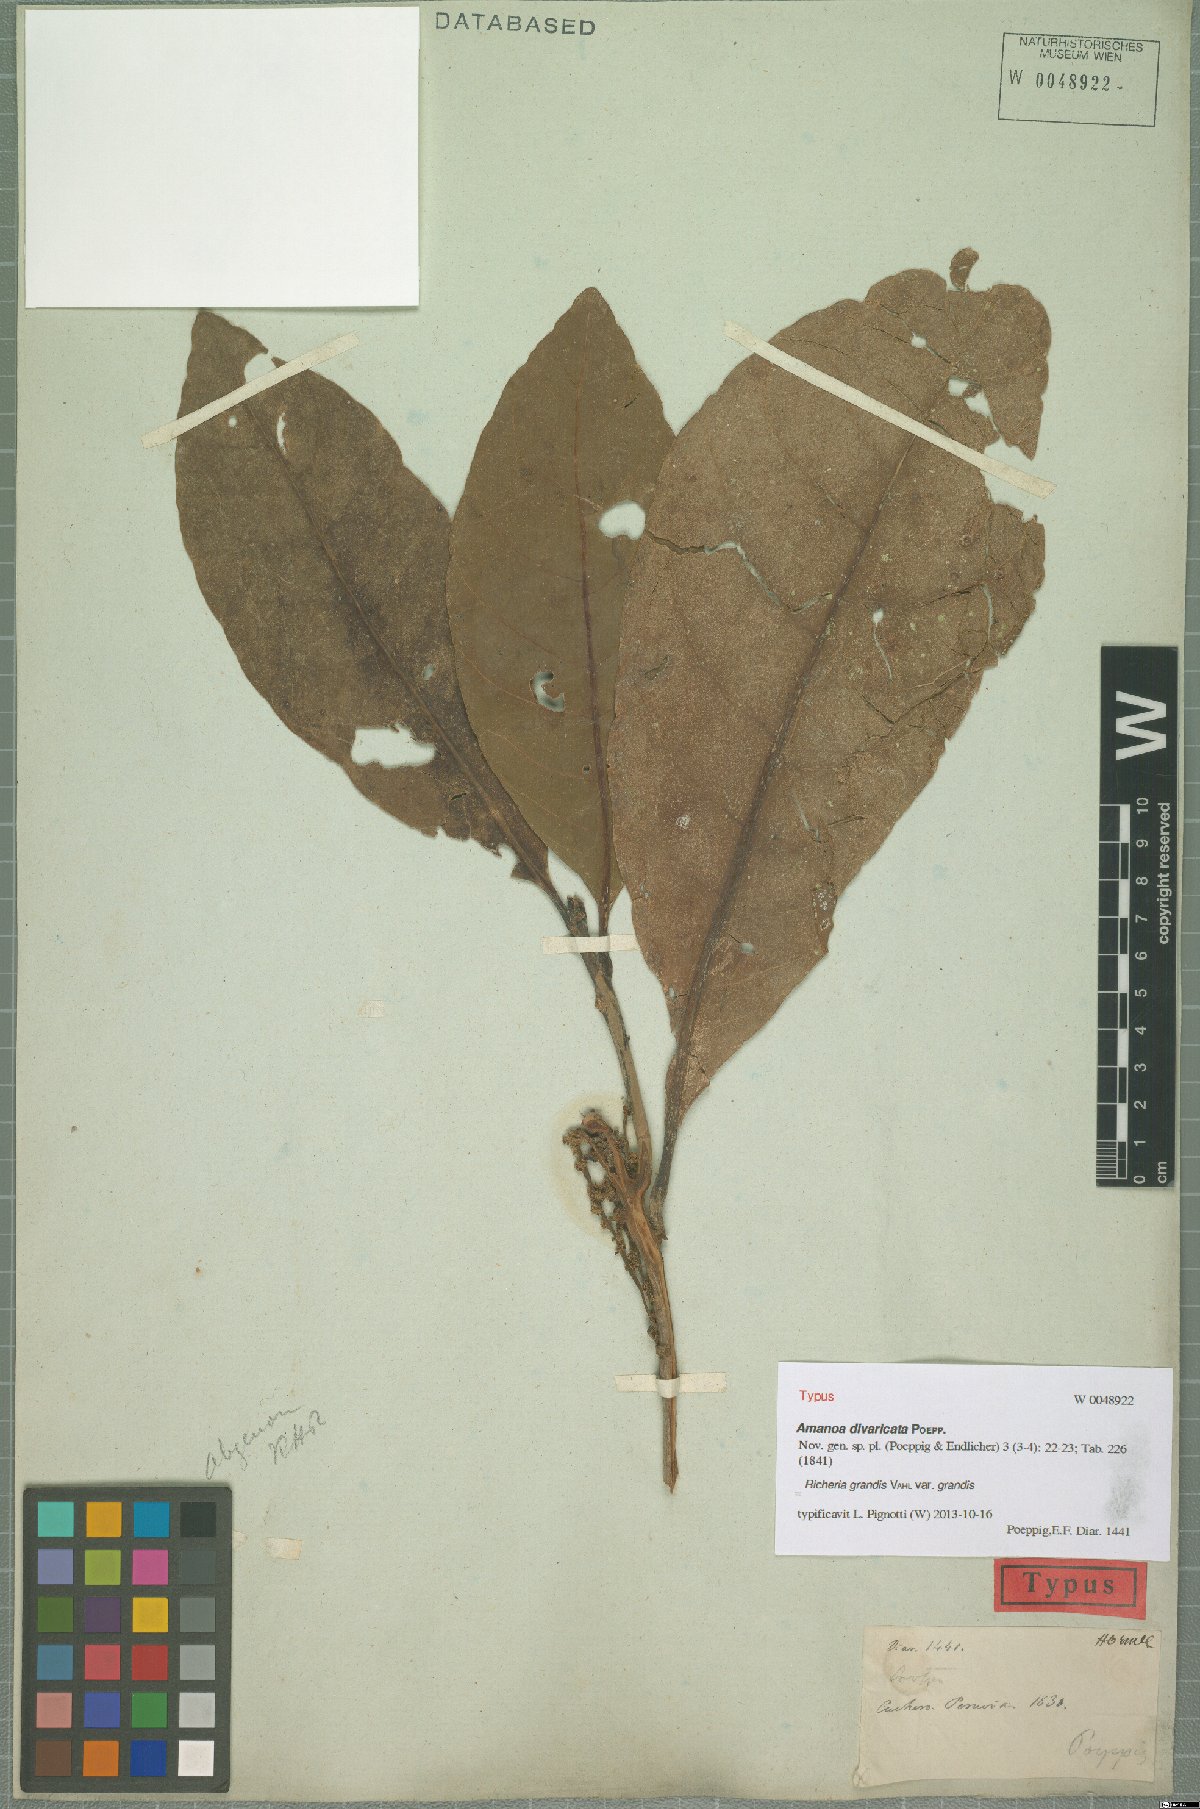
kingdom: Plantae
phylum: Tracheophyta
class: Magnoliopsida
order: Malpighiales
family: Phyllanthaceae
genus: Richeria
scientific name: Richeria grandis
